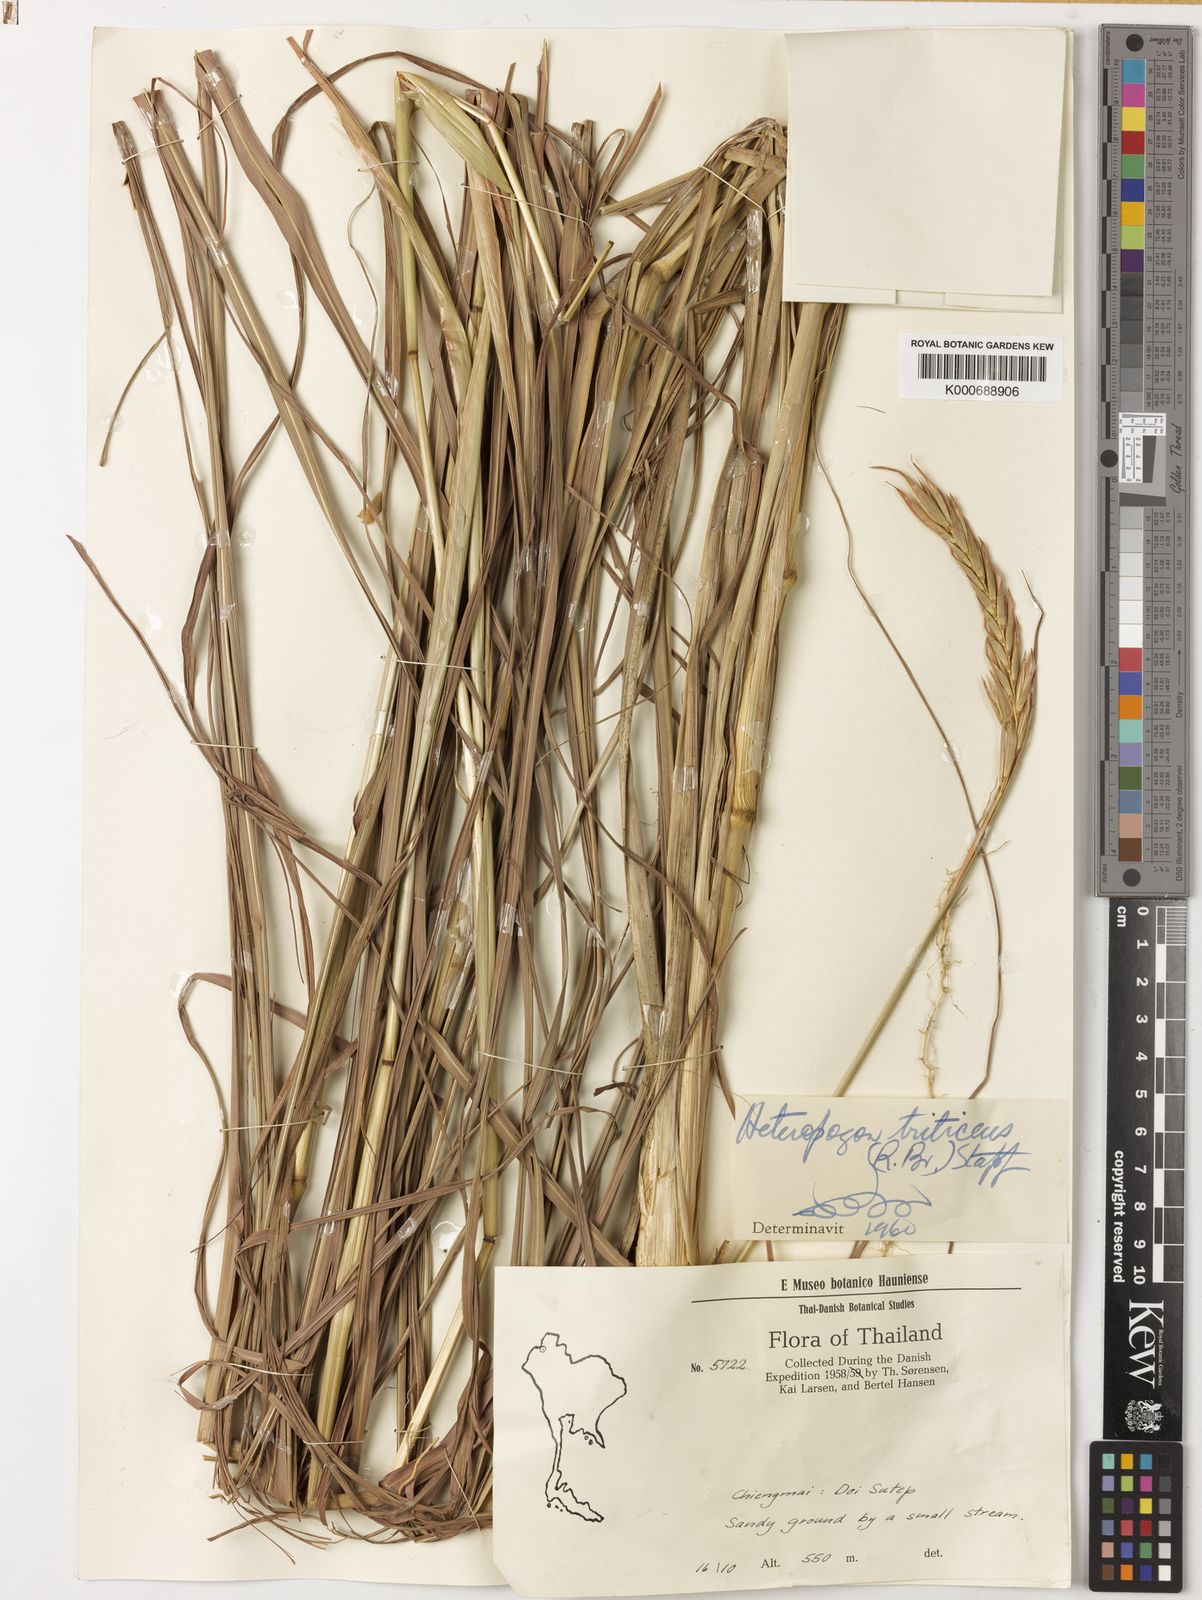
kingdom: Plantae
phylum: Tracheophyta
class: Liliopsida
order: Poales
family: Poaceae
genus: Heteropogon
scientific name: Heteropogon triticeus
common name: Sugar grass
